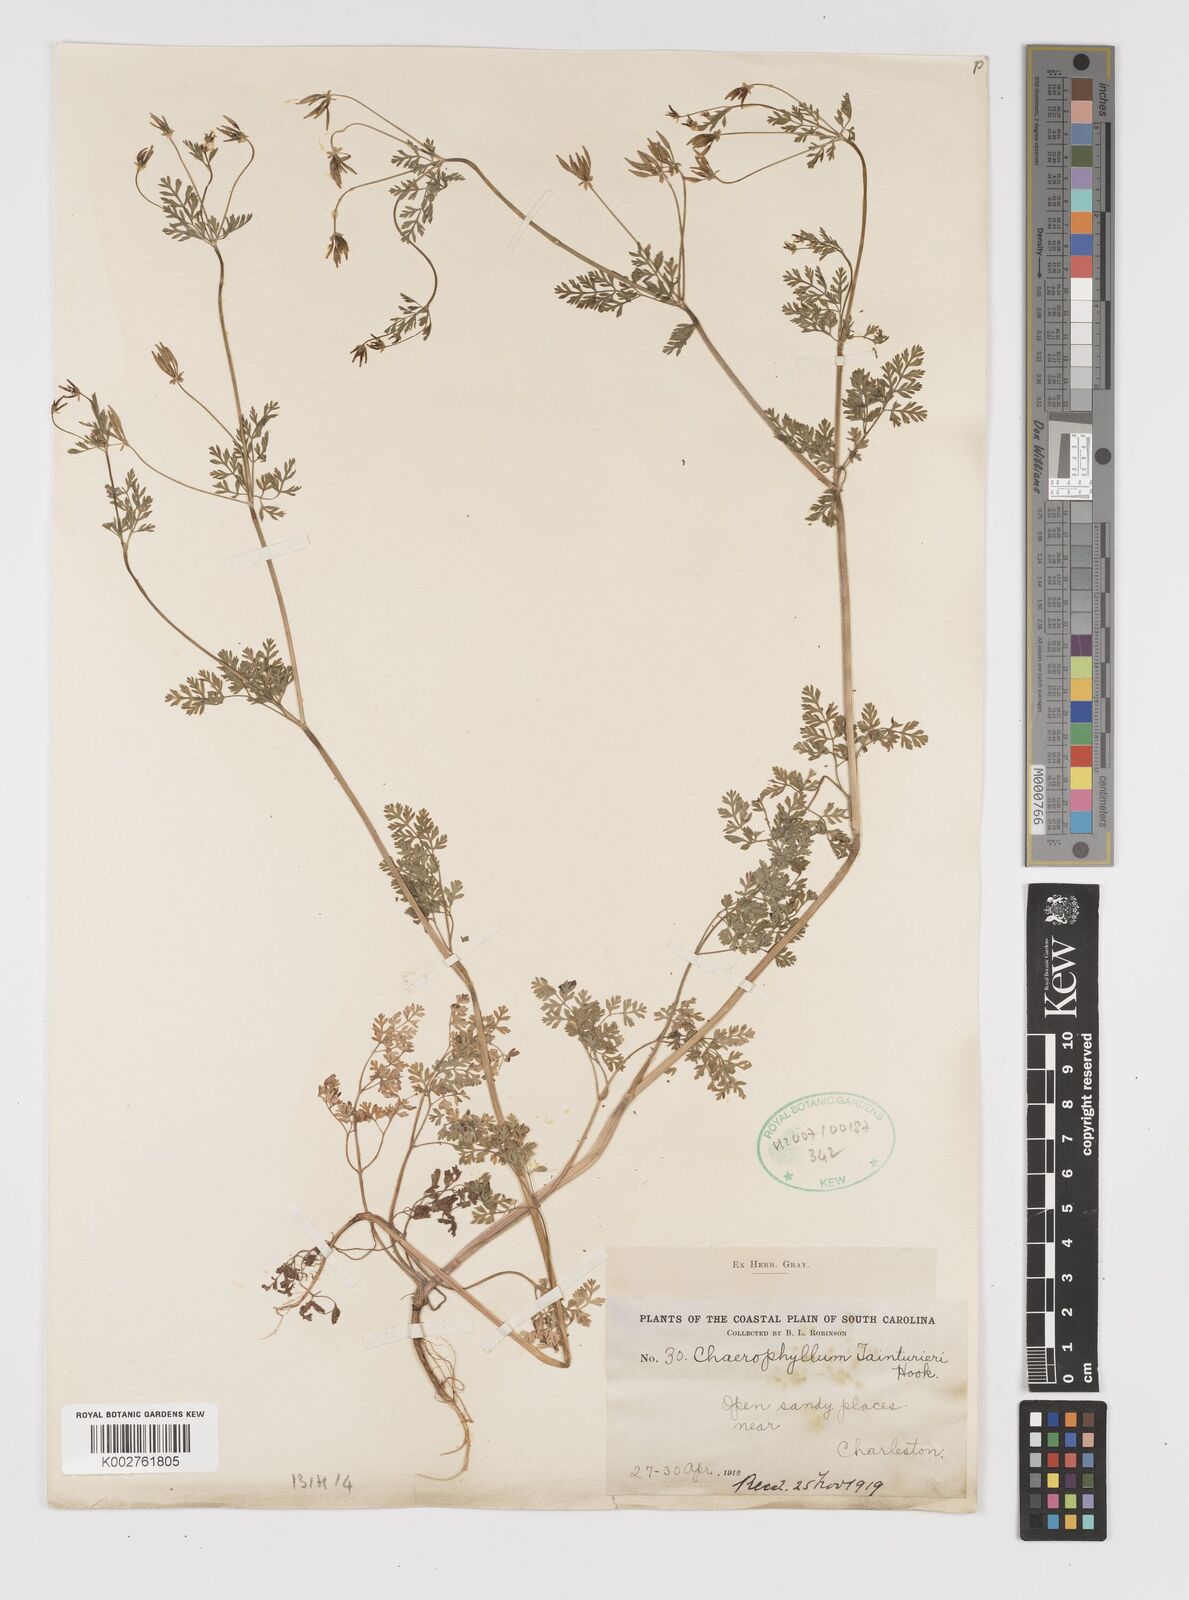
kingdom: Plantae
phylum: Tracheophyta
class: Magnoliopsida
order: Apiales
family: Apiaceae
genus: Chaerophyllum
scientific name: Chaerophyllum tainturieri
